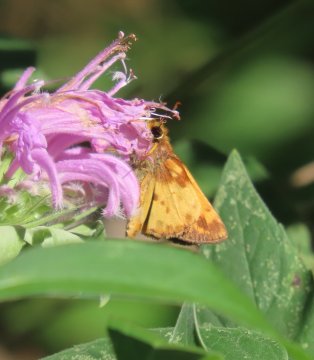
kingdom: Animalia
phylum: Arthropoda
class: Insecta
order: Lepidoptera
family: Hesperiidae
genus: Lon
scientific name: Lon zabulon
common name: Zabulon Skipper
